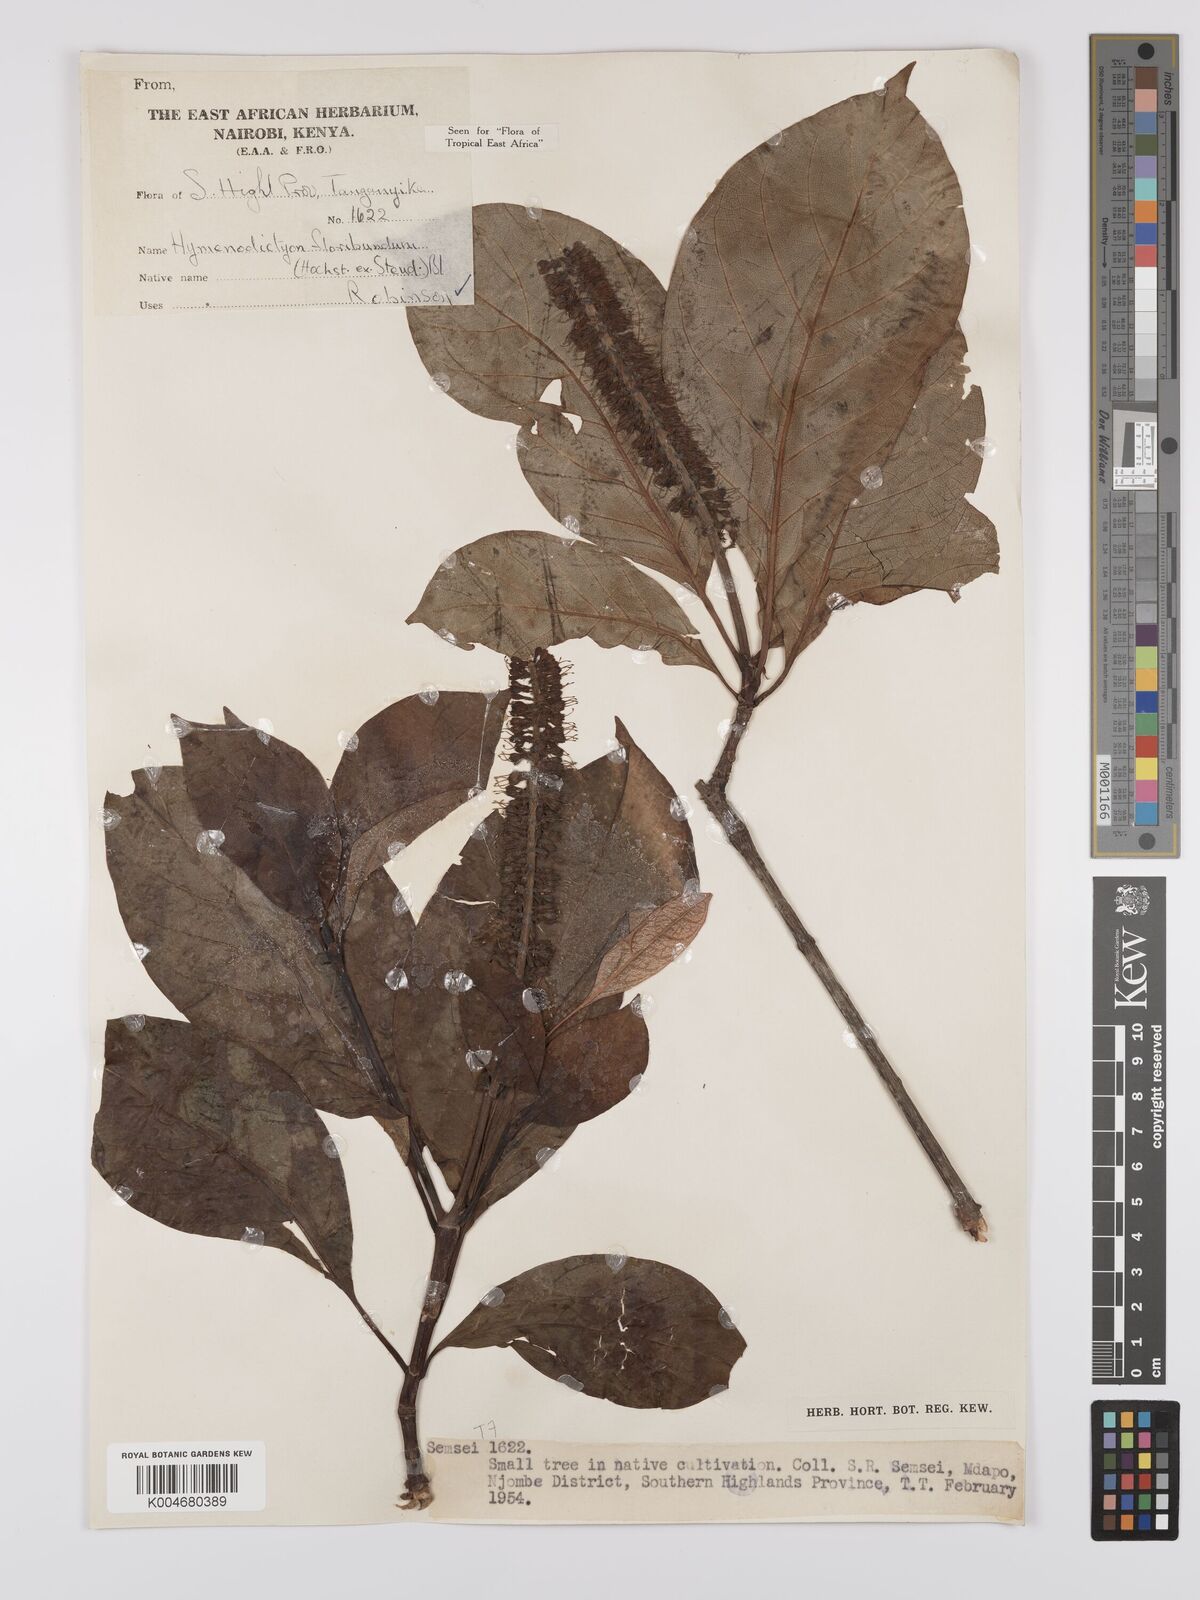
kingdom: Plantae
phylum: Tracheophyta
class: Magnoliopsida
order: Gentianales
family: Rubiaceae
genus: Hymenodictyon
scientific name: Hymenodictyon floribundum
